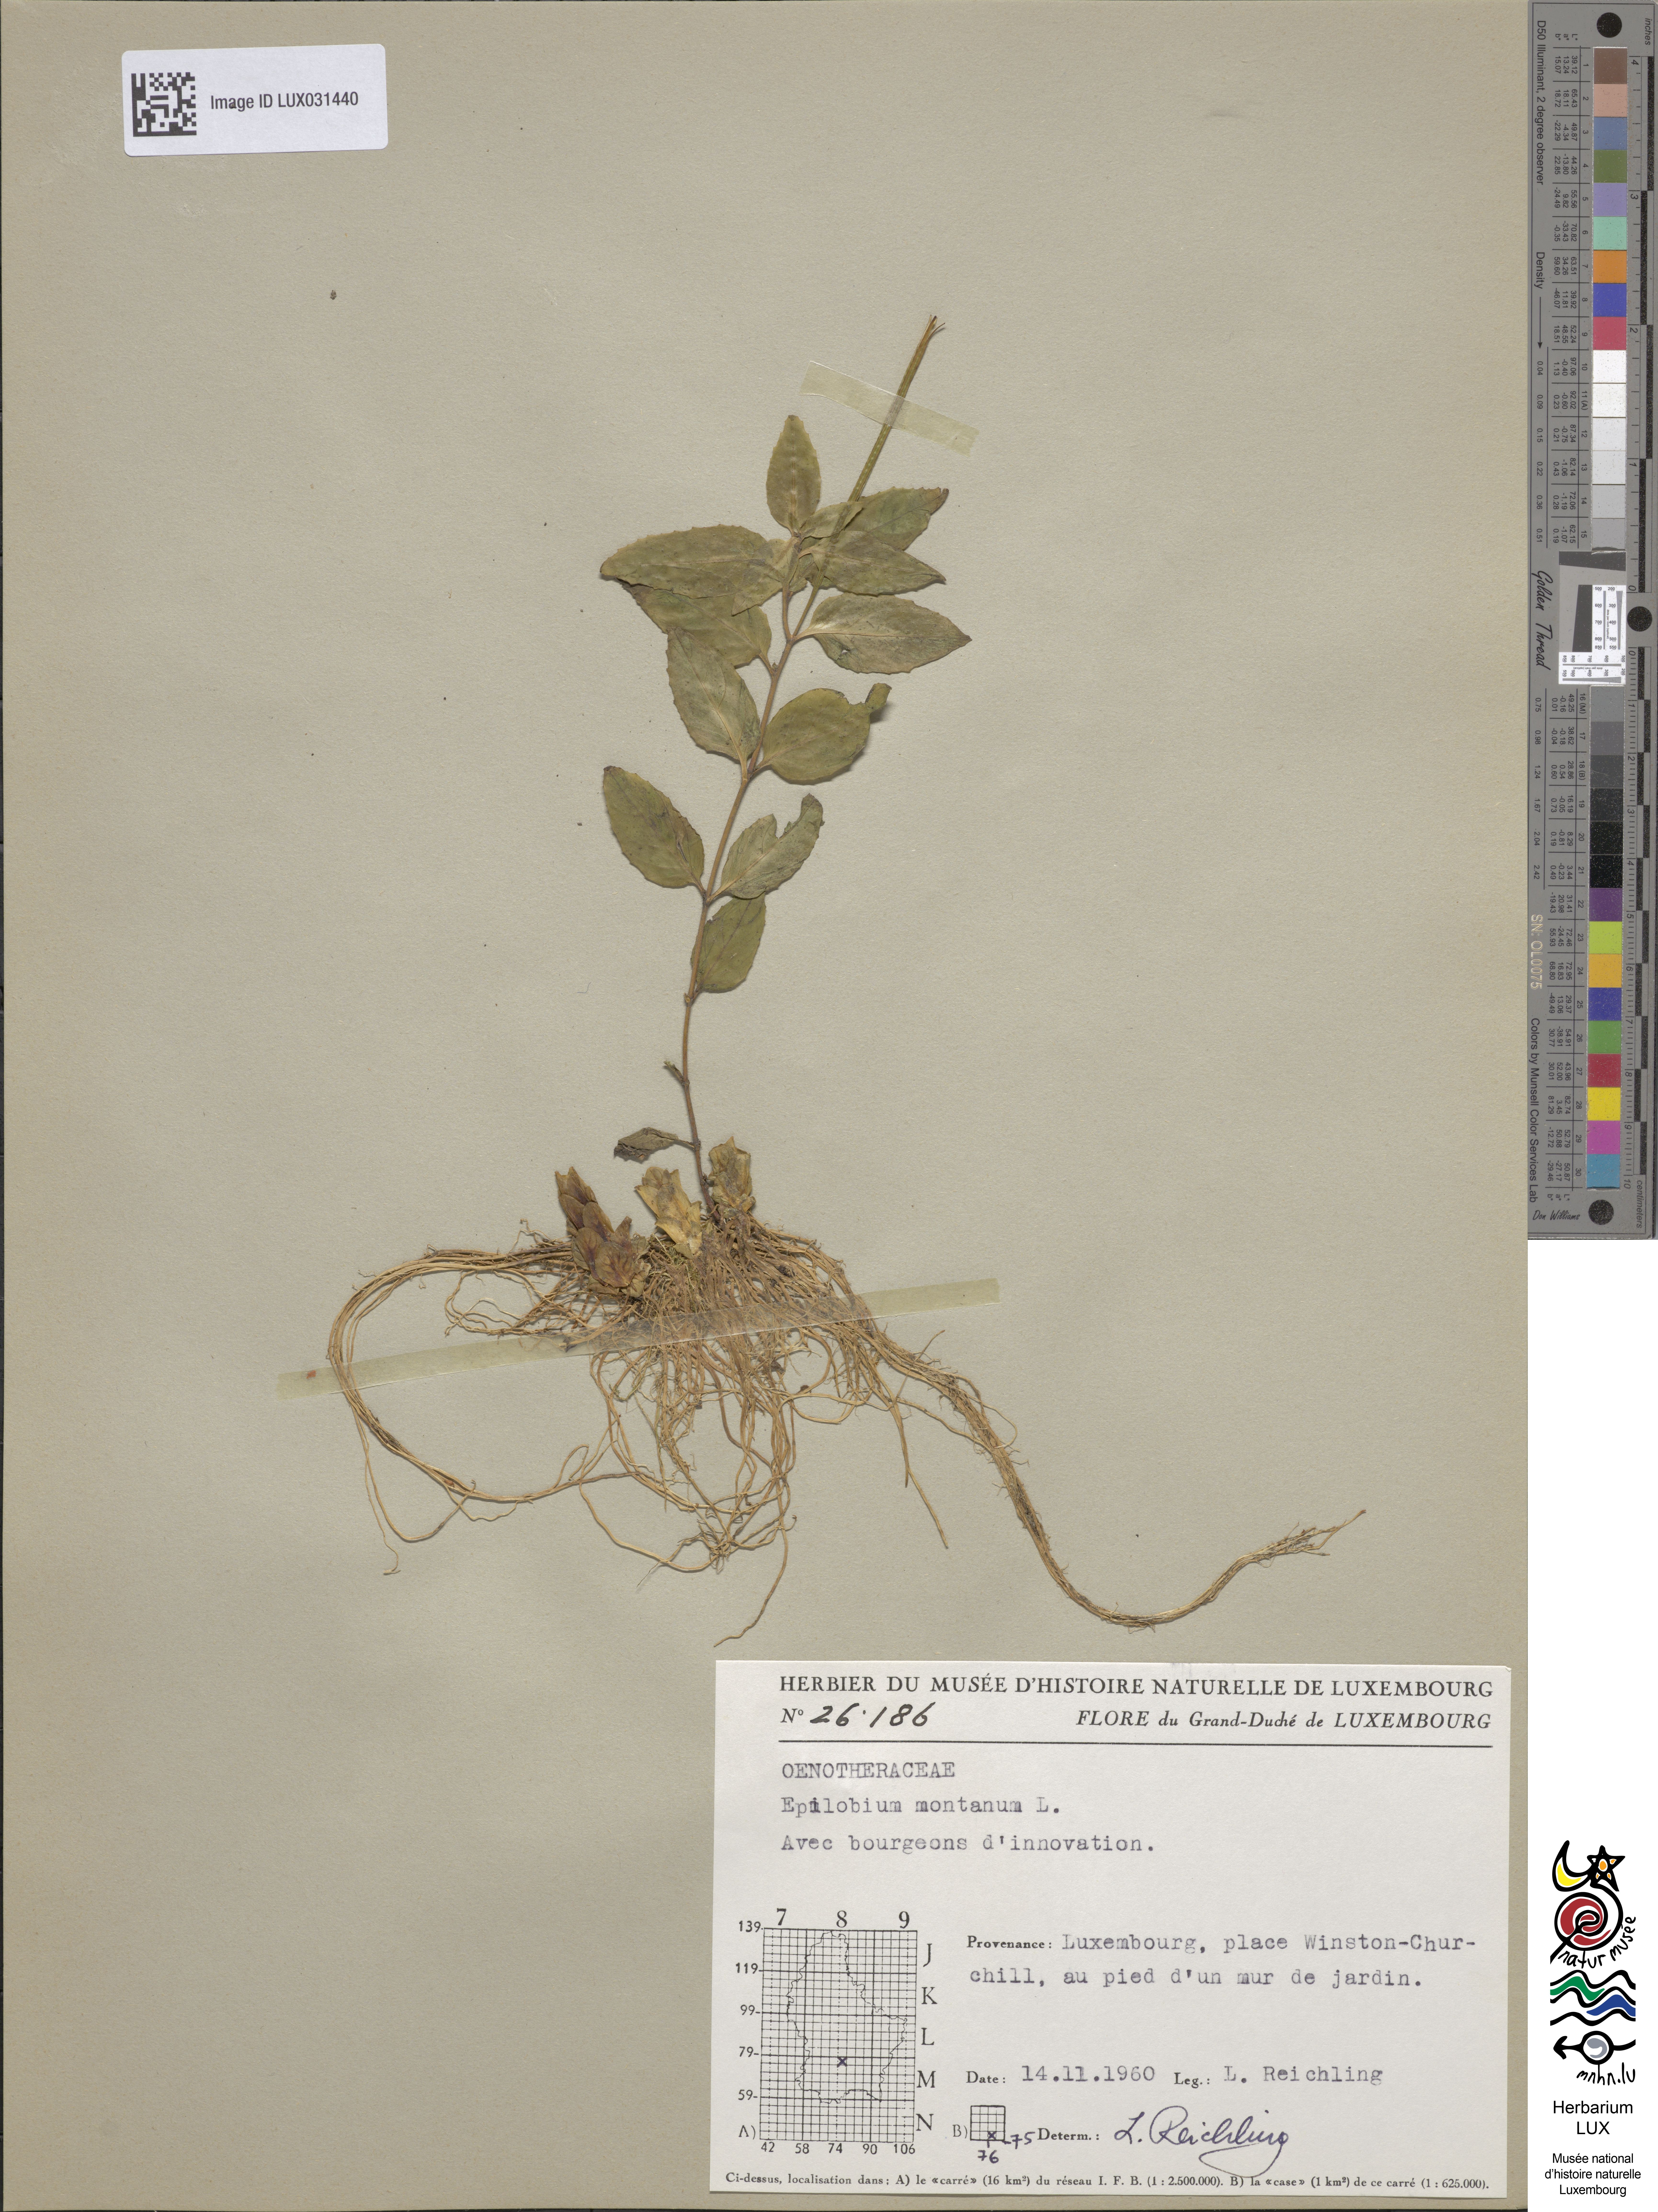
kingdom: Plantae
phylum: Tracheophyta
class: Magnoliopsida
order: Myrtales
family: Onagraceae
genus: Epilobium
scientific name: Epilobium montanum
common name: Broad-leaved willowherb
